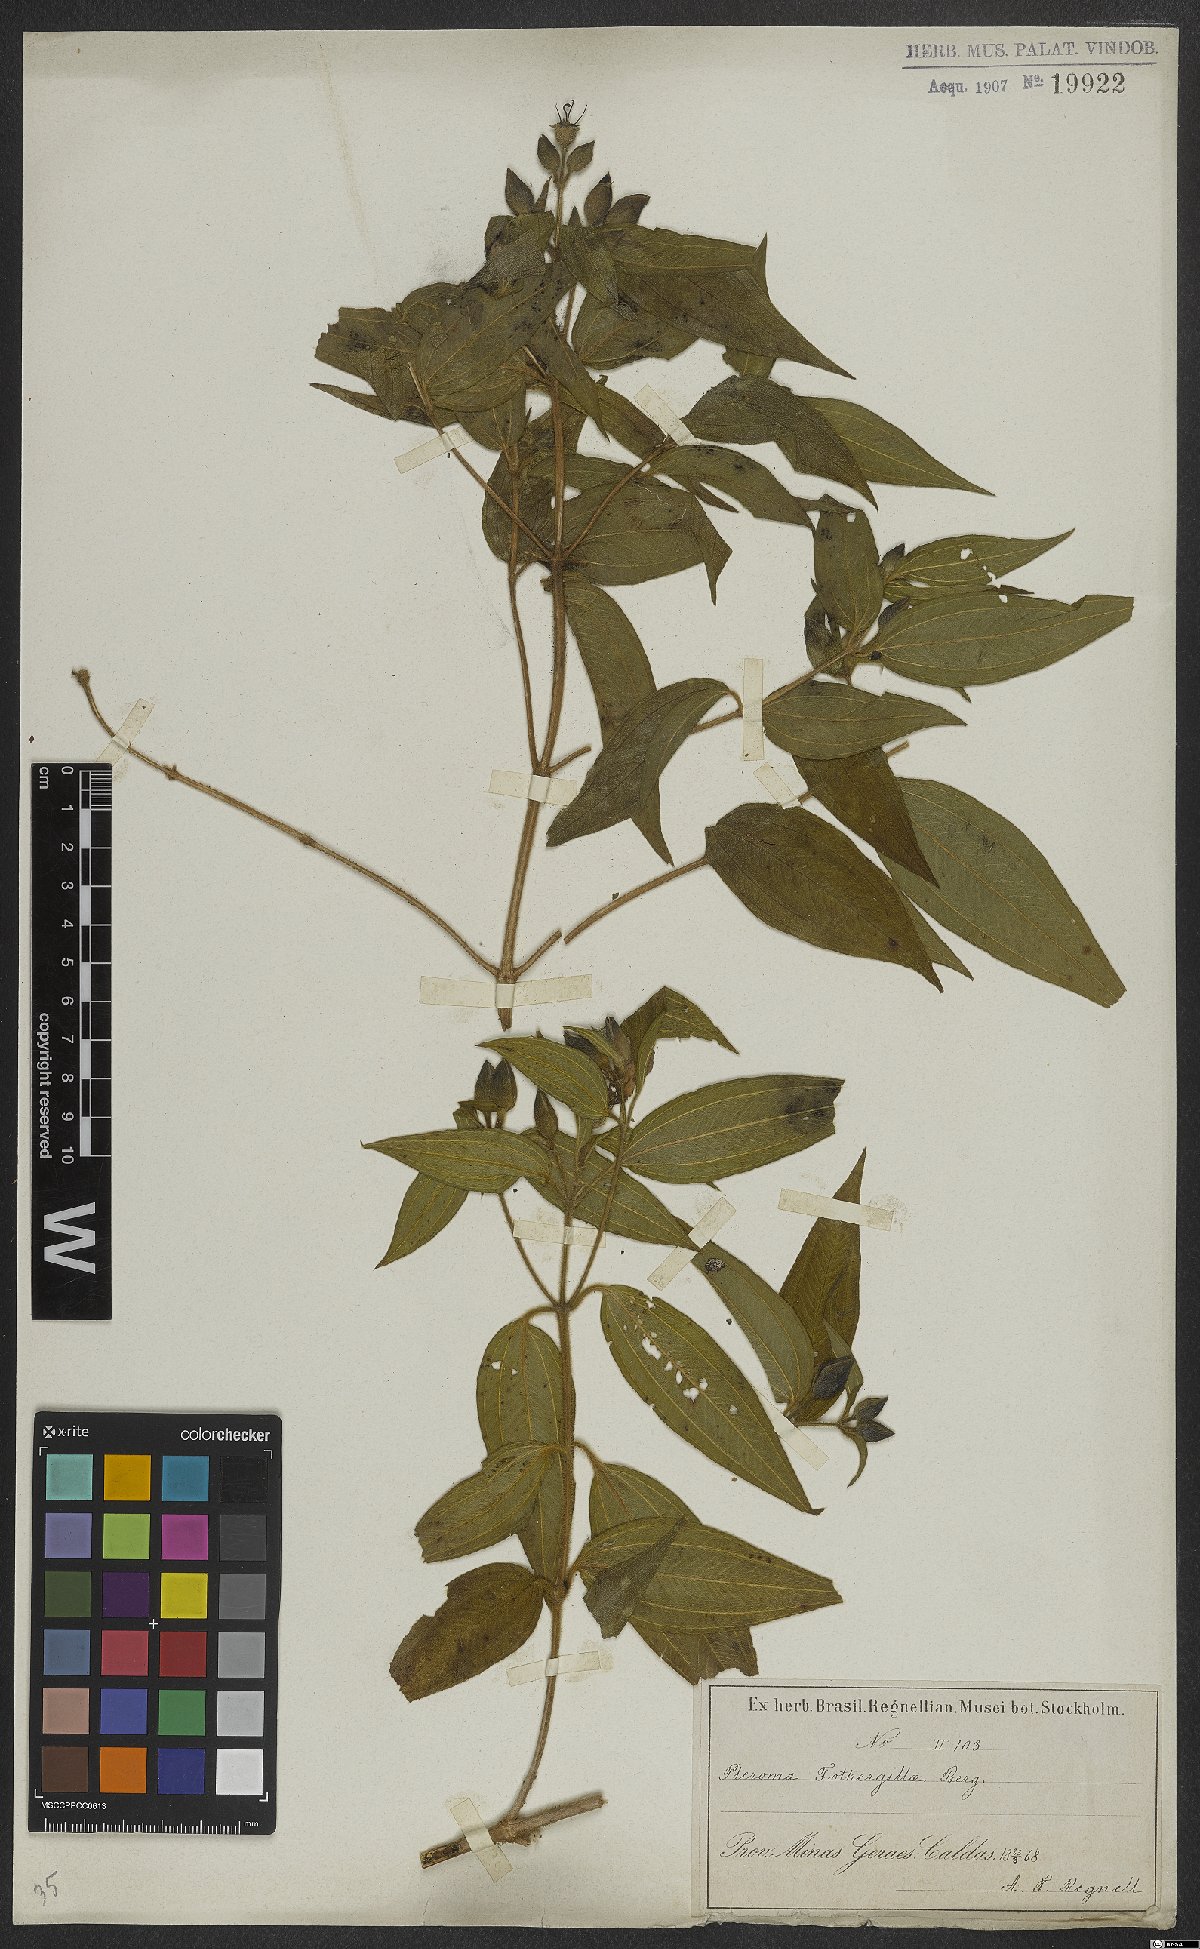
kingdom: Plantae
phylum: Tracheophyta
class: Magnoliopsida
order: Myrtales
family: Melastomataceae
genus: Pleroma
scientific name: Pleroma fothergillae
